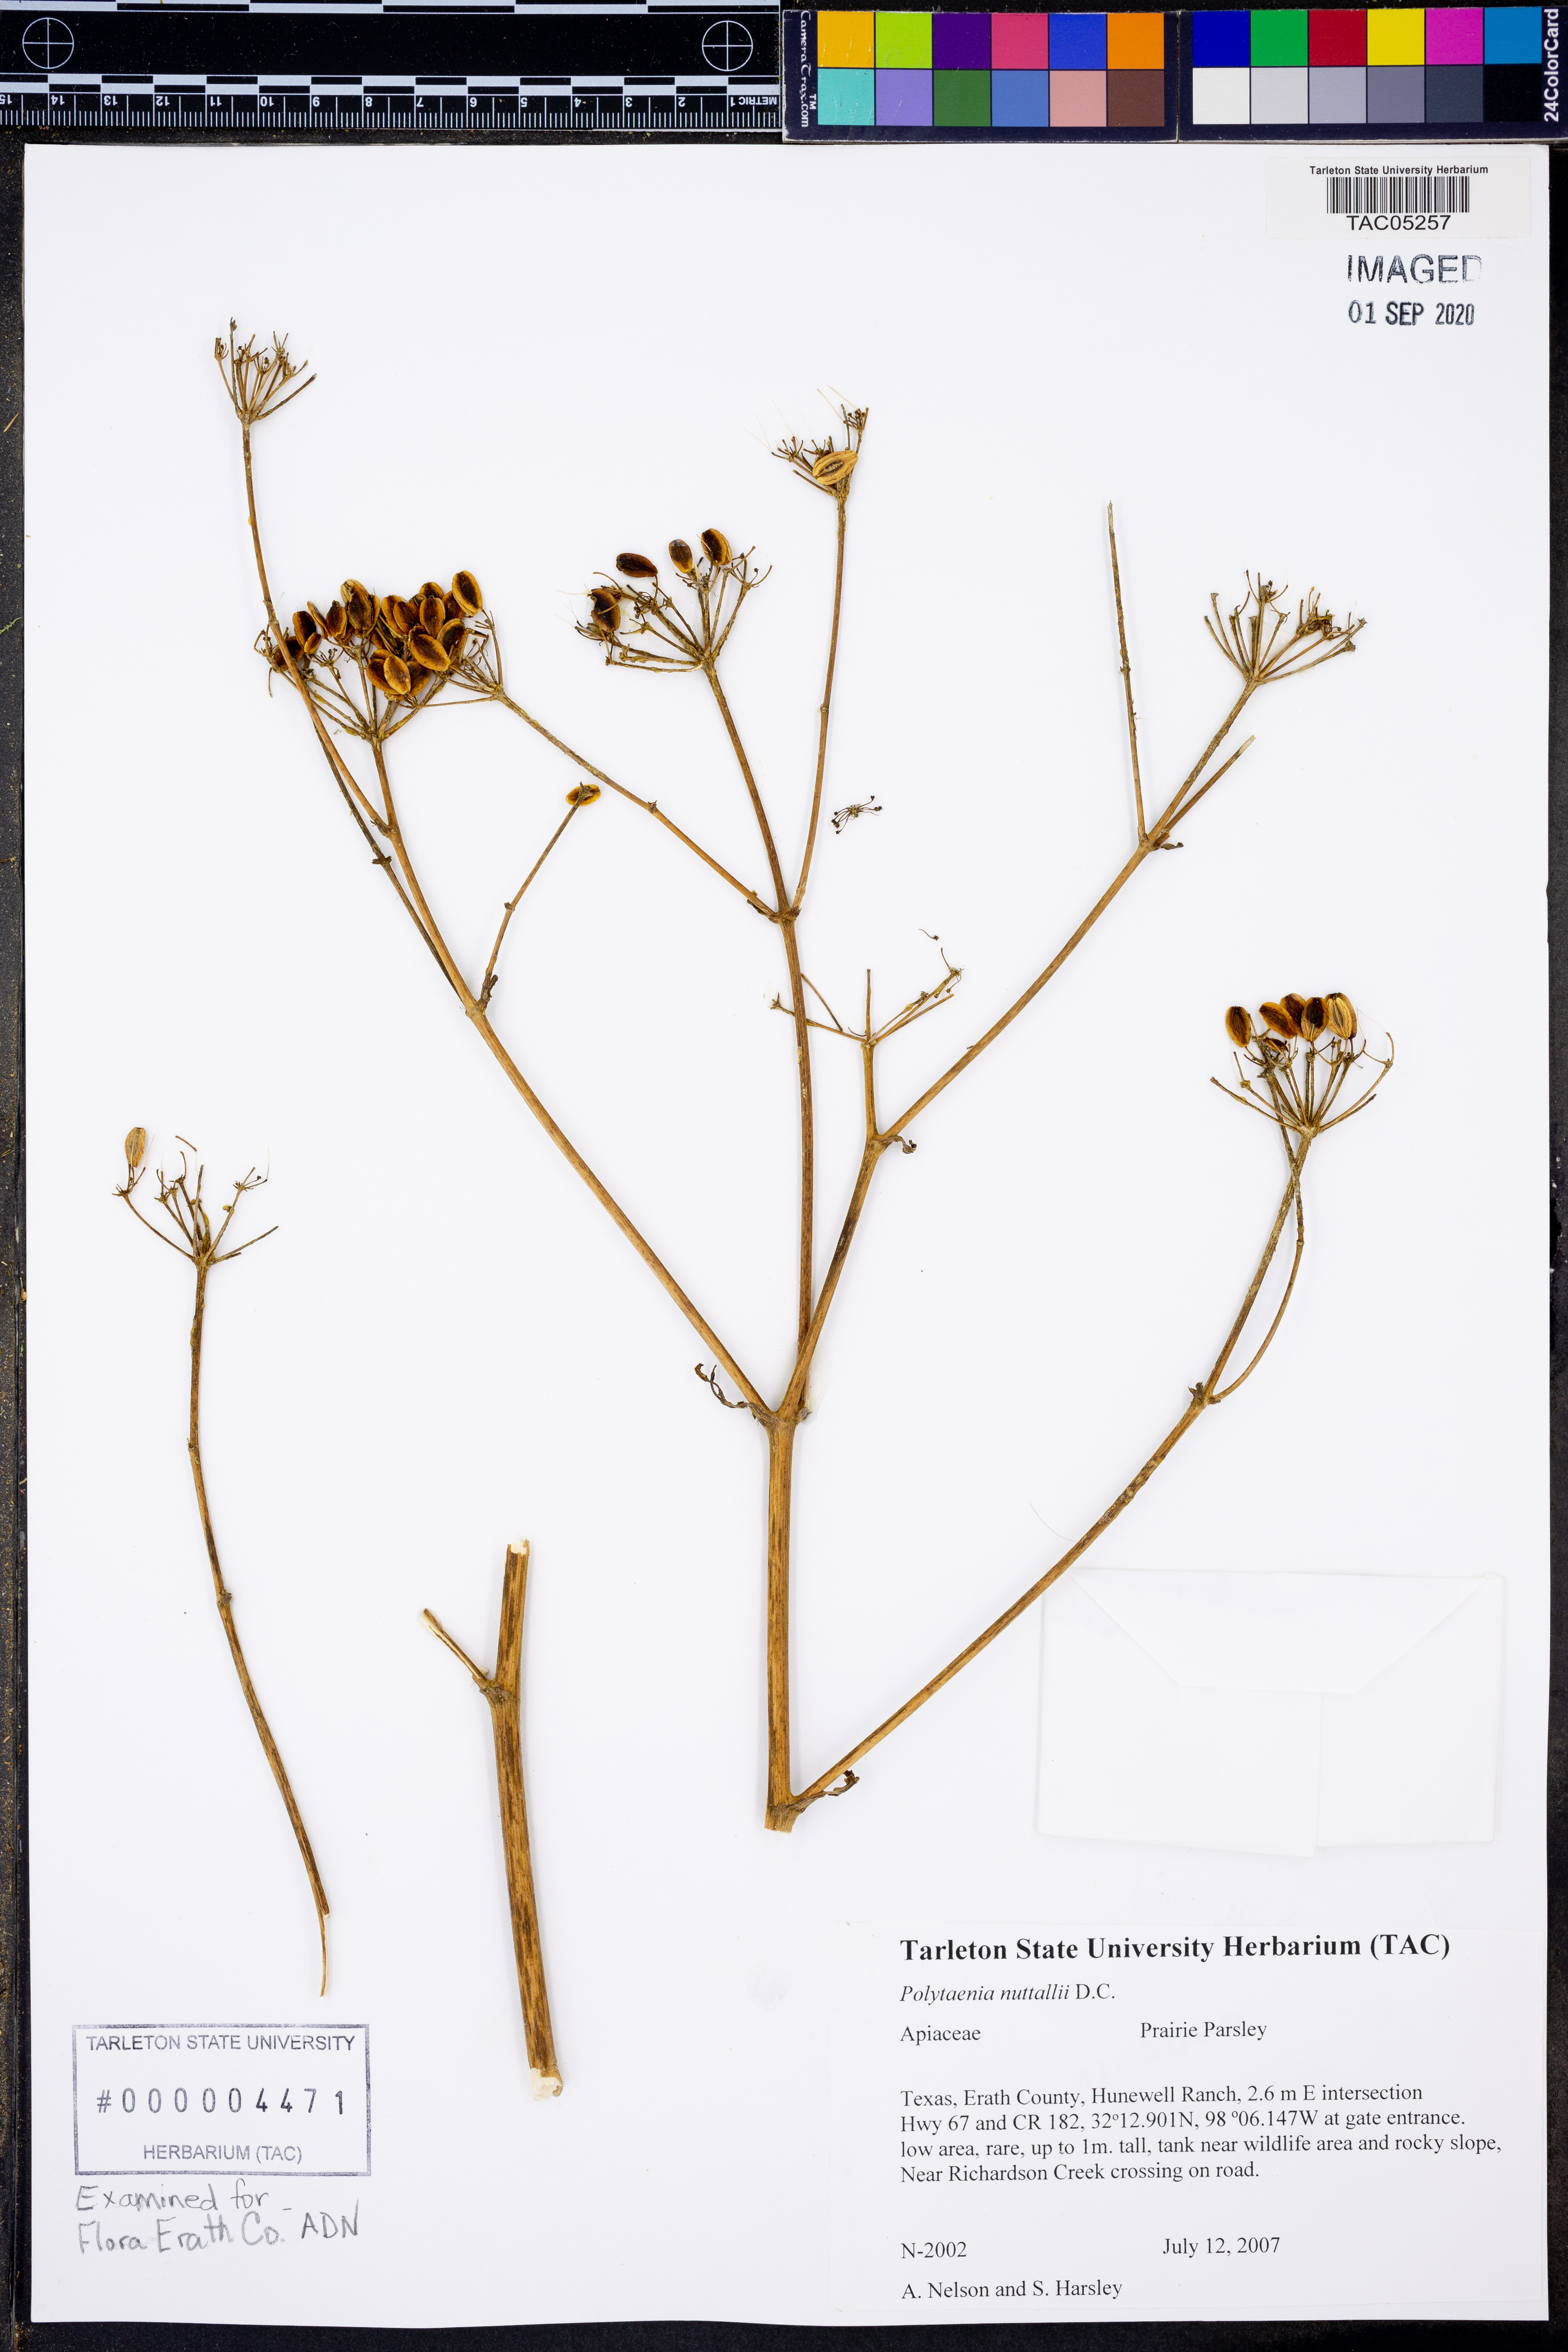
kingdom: Plantae
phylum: Tracheophyta
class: Magnoliopsida
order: Apiales
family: Apiaceae
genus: Polytaenia
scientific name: Polytaenia nuttallii
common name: Prairie-parsley
